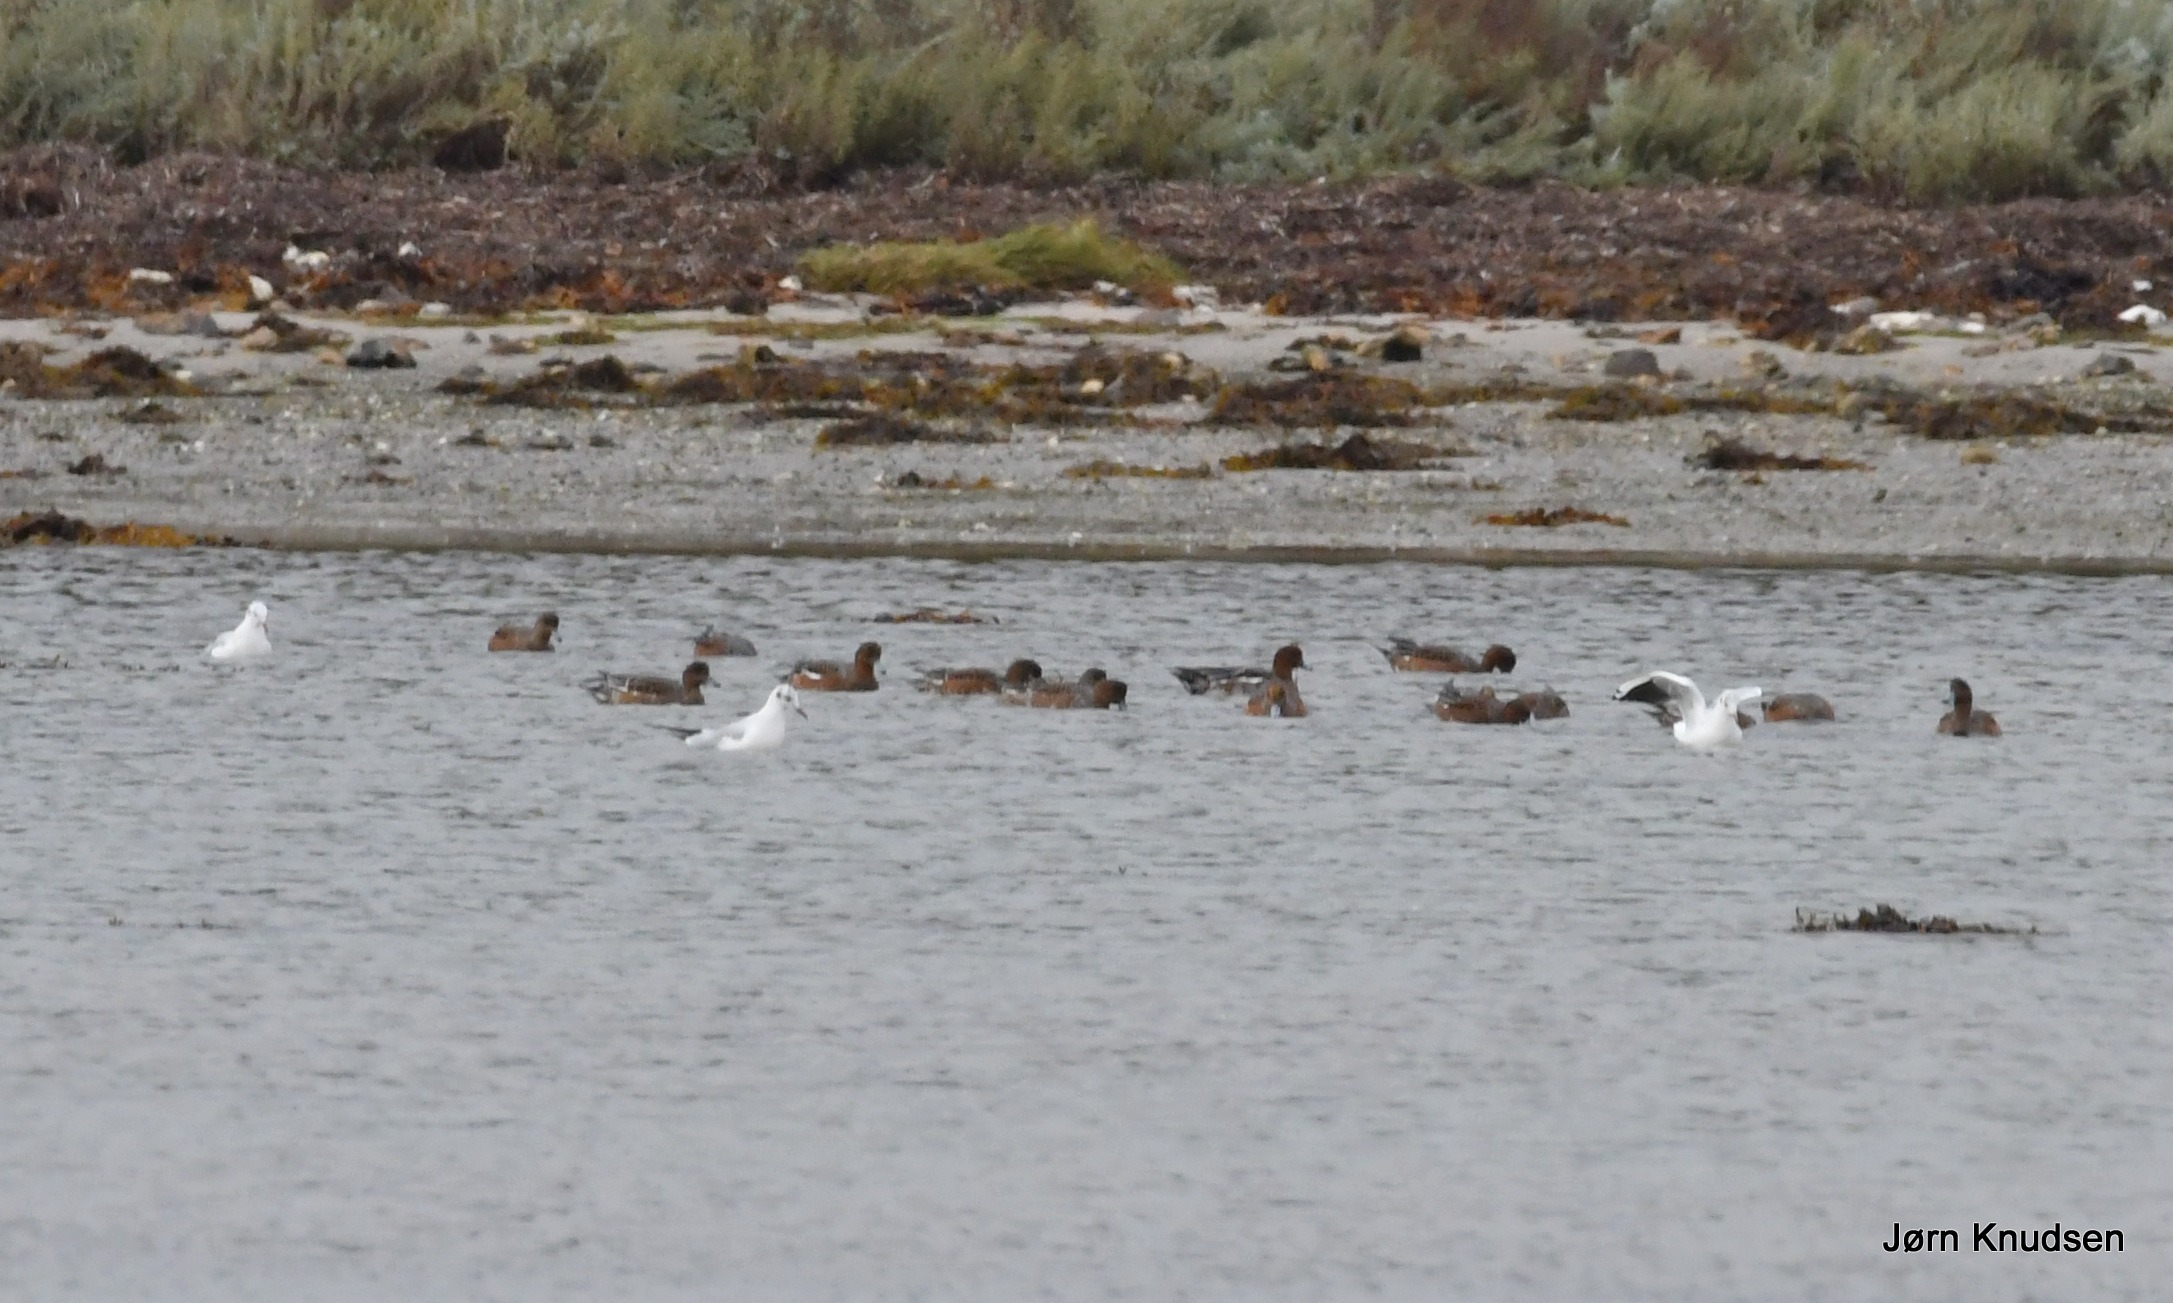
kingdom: Animalia
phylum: Chordata
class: Aves
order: Anseriformes
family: Anatidae
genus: Mareca
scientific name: Mareca penelope
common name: Pibeand
